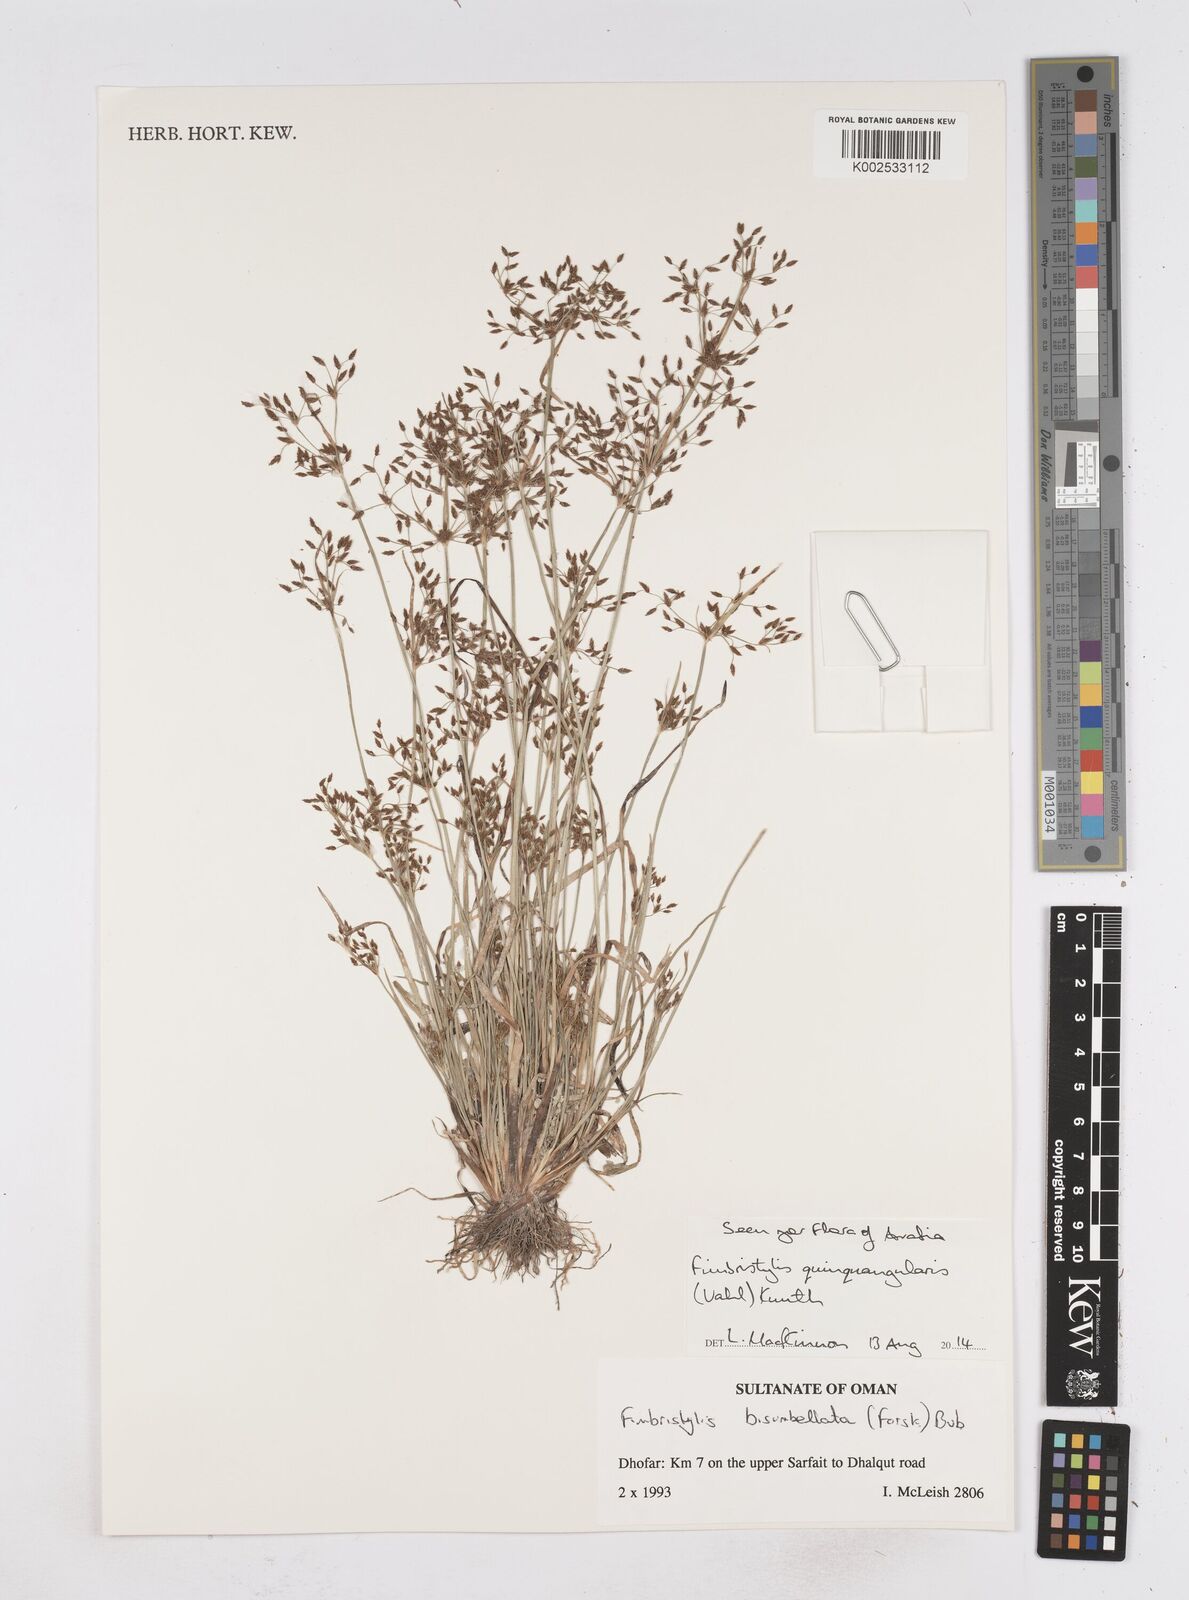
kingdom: Plantae
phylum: Tracheophyta
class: Liliopsida
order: Poales
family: Cyperaceae
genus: Fimbristylis
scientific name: Fimbristylis quinquangularis
